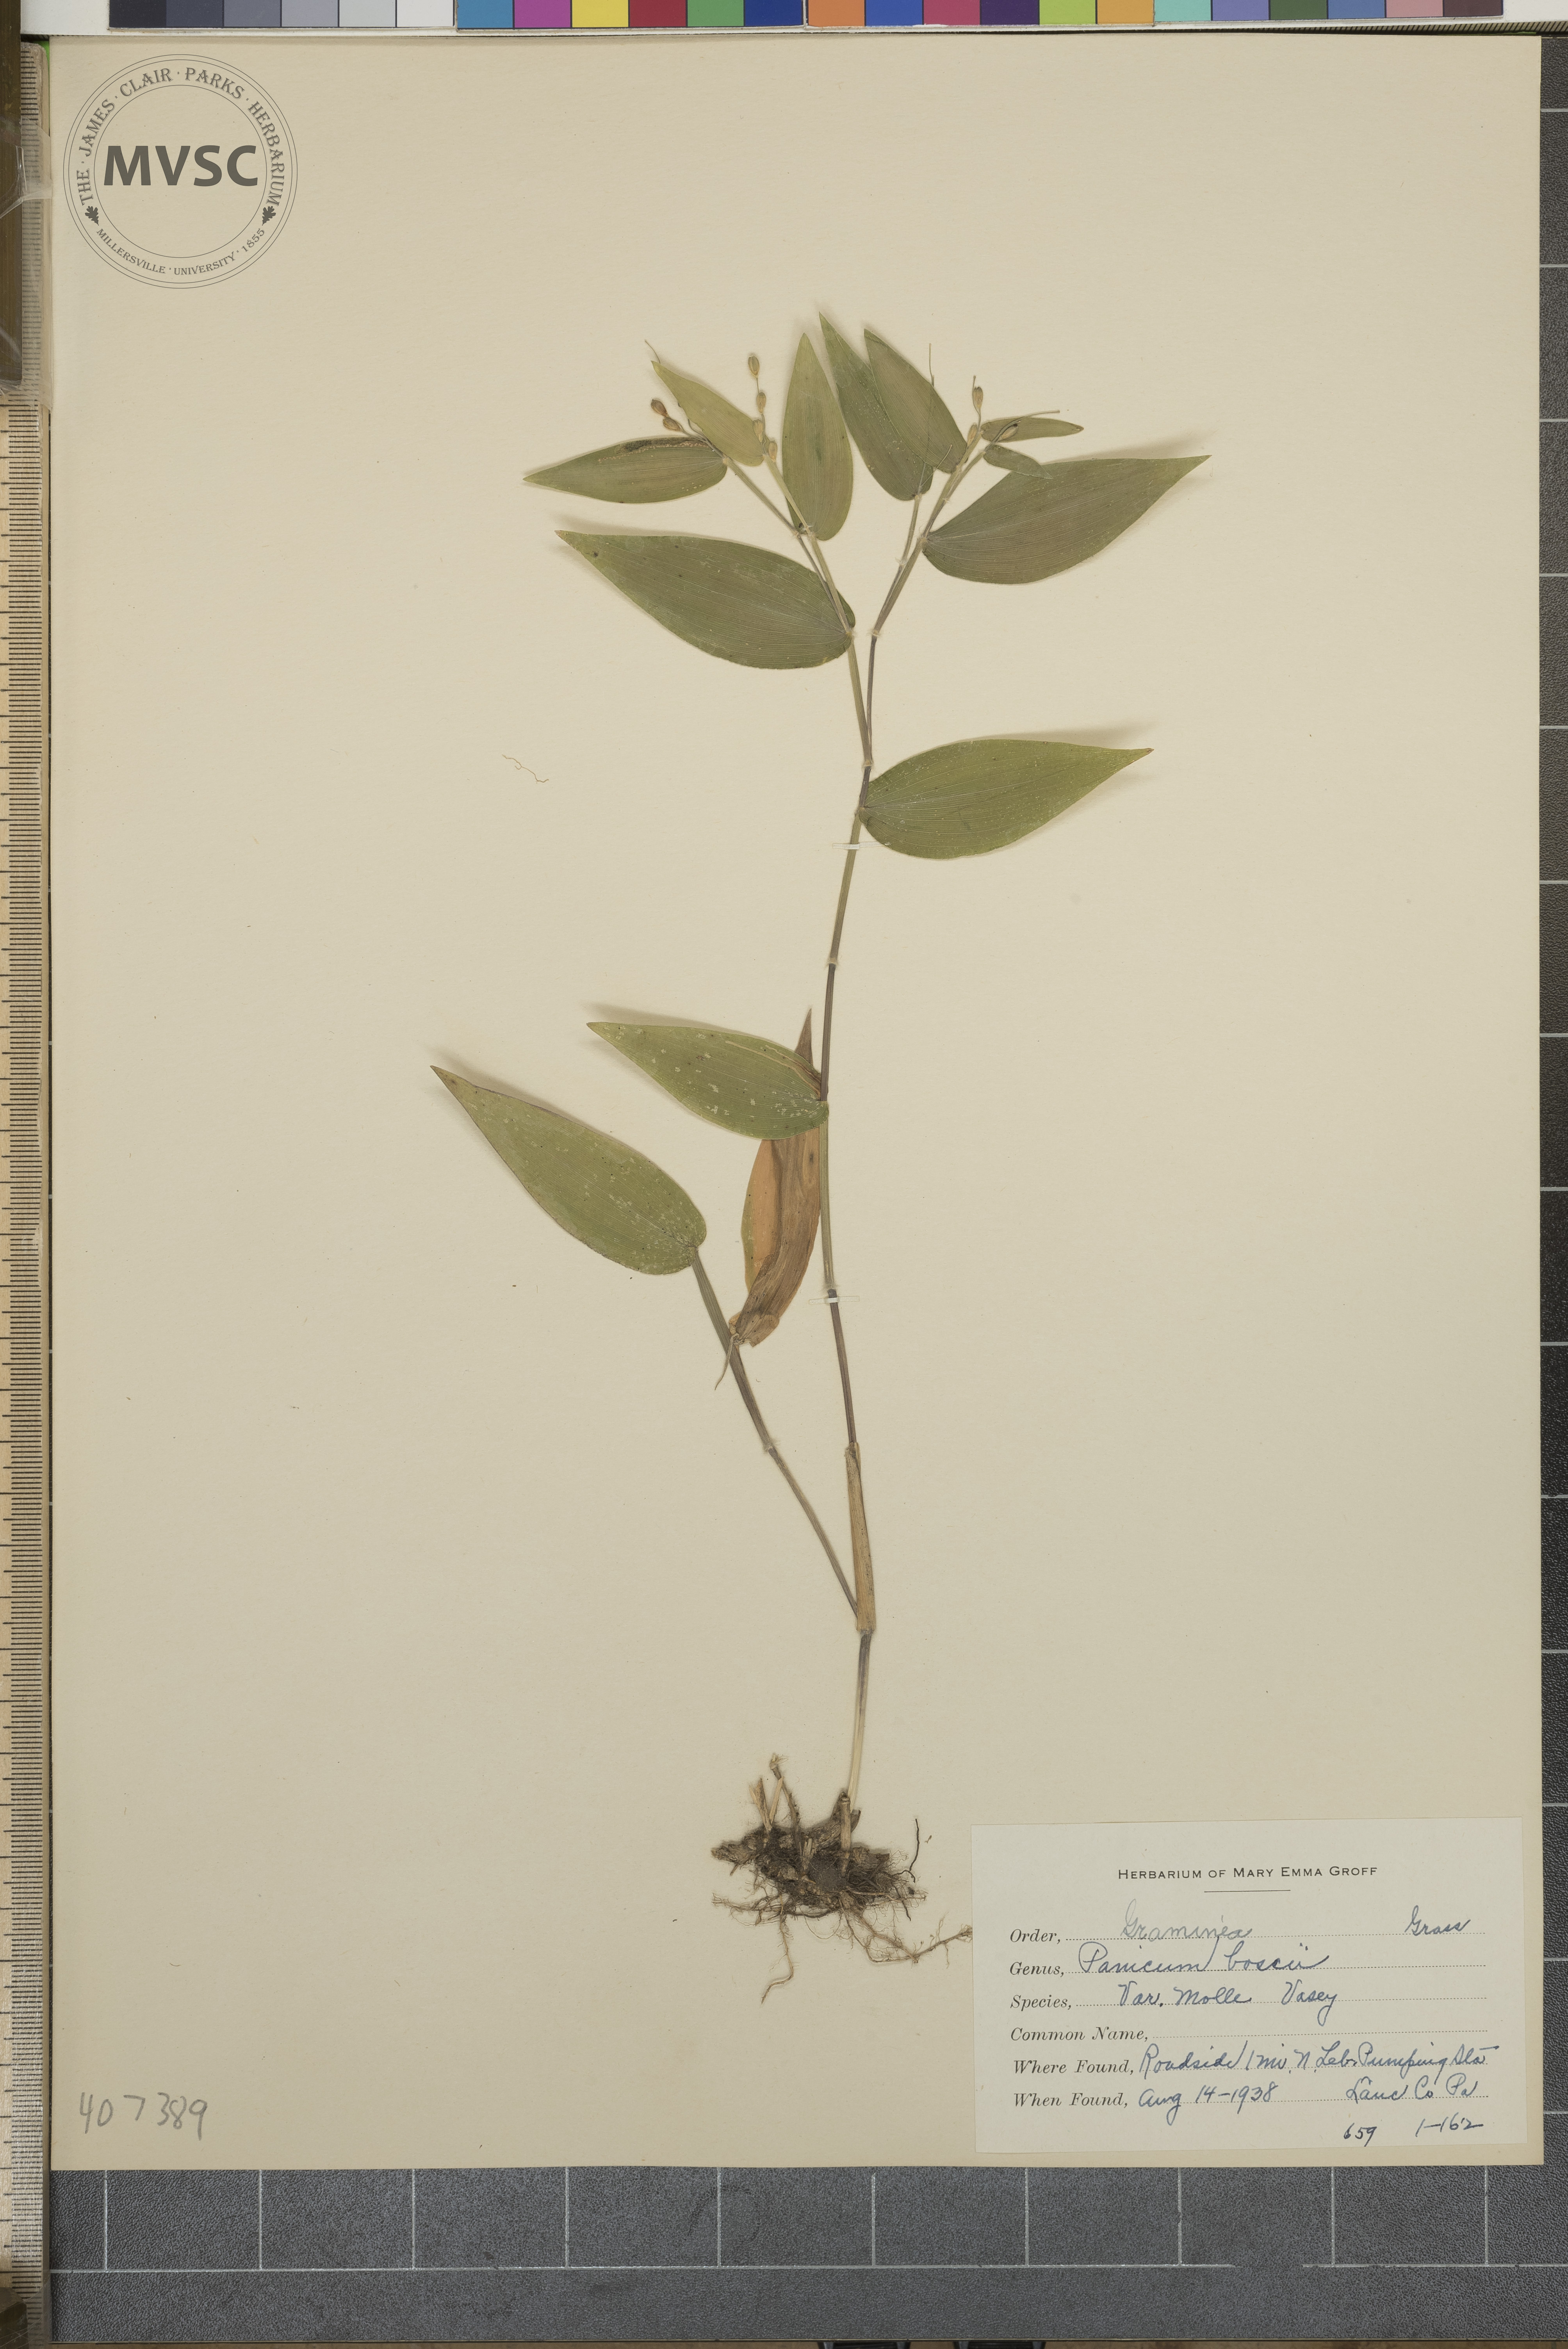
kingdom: Plantae
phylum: Tracheophyta
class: Liliopsida
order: Poales
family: Poaceae
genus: Dichanthelium
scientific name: Dichanthelium boscii
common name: Bosc's panic grass
